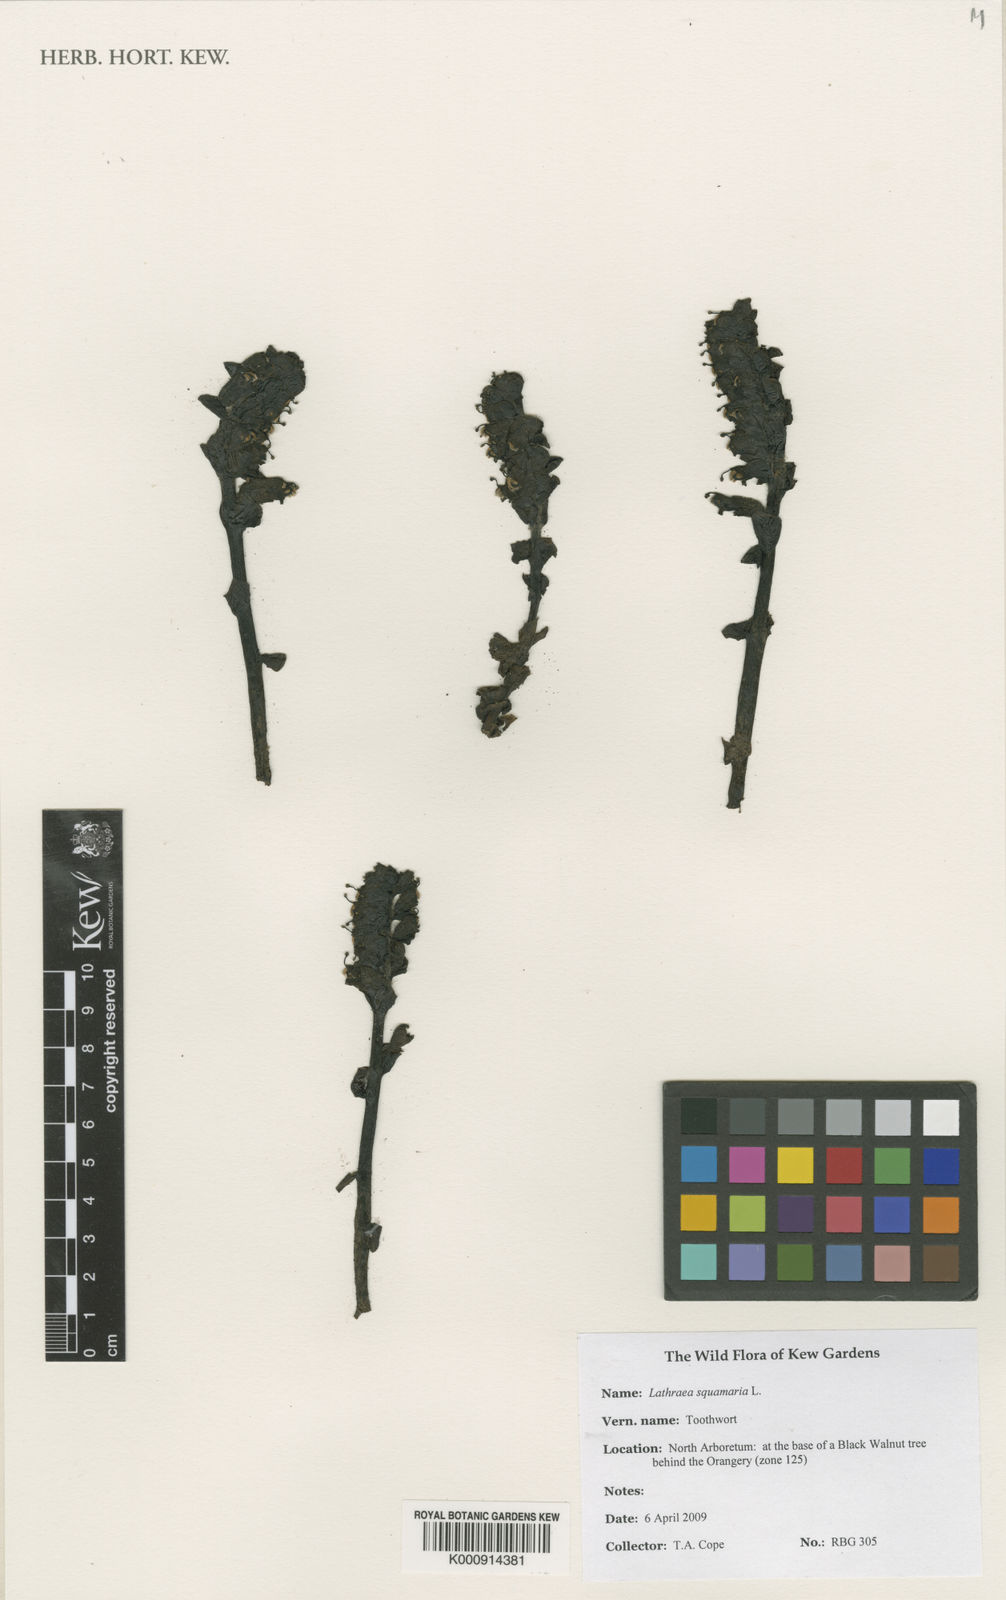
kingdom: Plantae
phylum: Tracheophyta
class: Magnoliopsida
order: Lamiales
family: Orobanchaceae
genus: Lathraea
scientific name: Lathraea squamaria
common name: Toothwort
